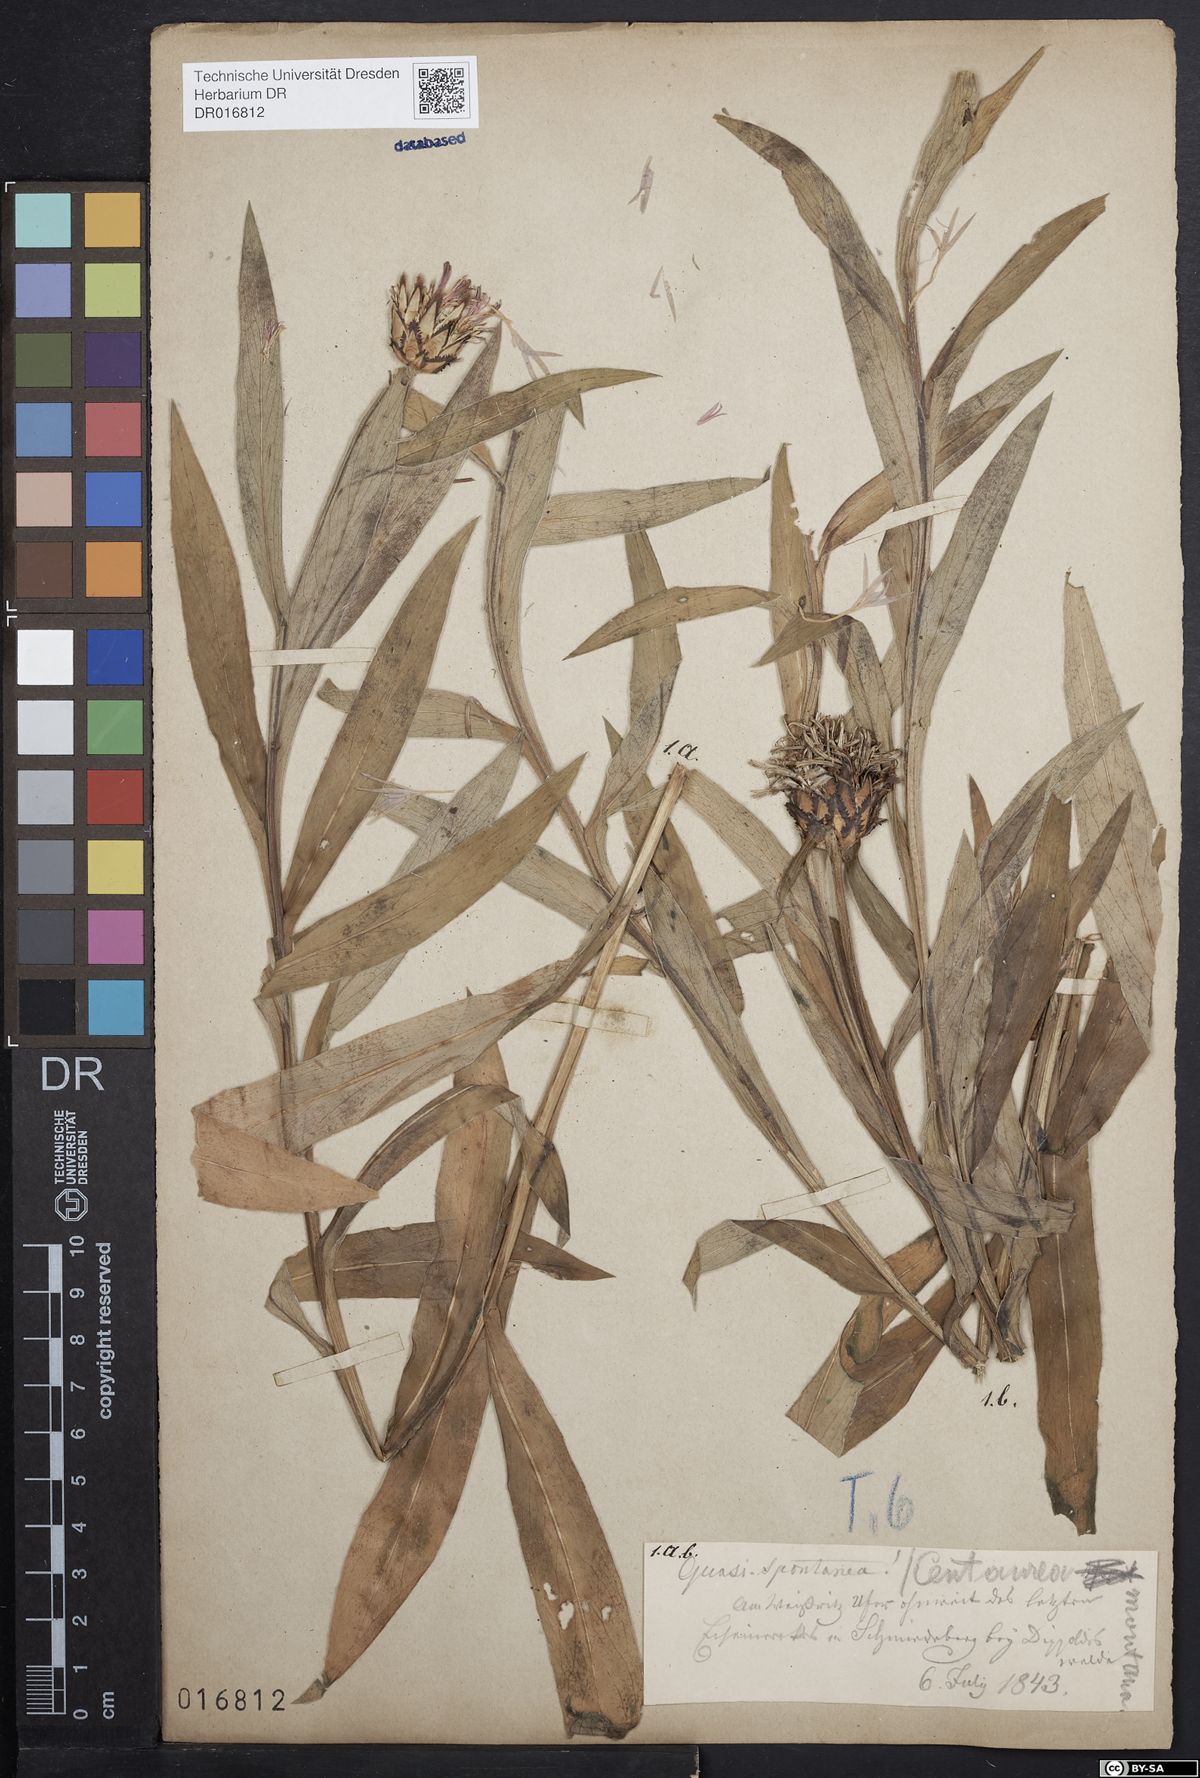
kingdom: Plantae
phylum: Tracheophyta
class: Magnoliopsida
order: Asterales
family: Asteraceae
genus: Centaurea
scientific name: Centaurea montana
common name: Perennial cornflower
